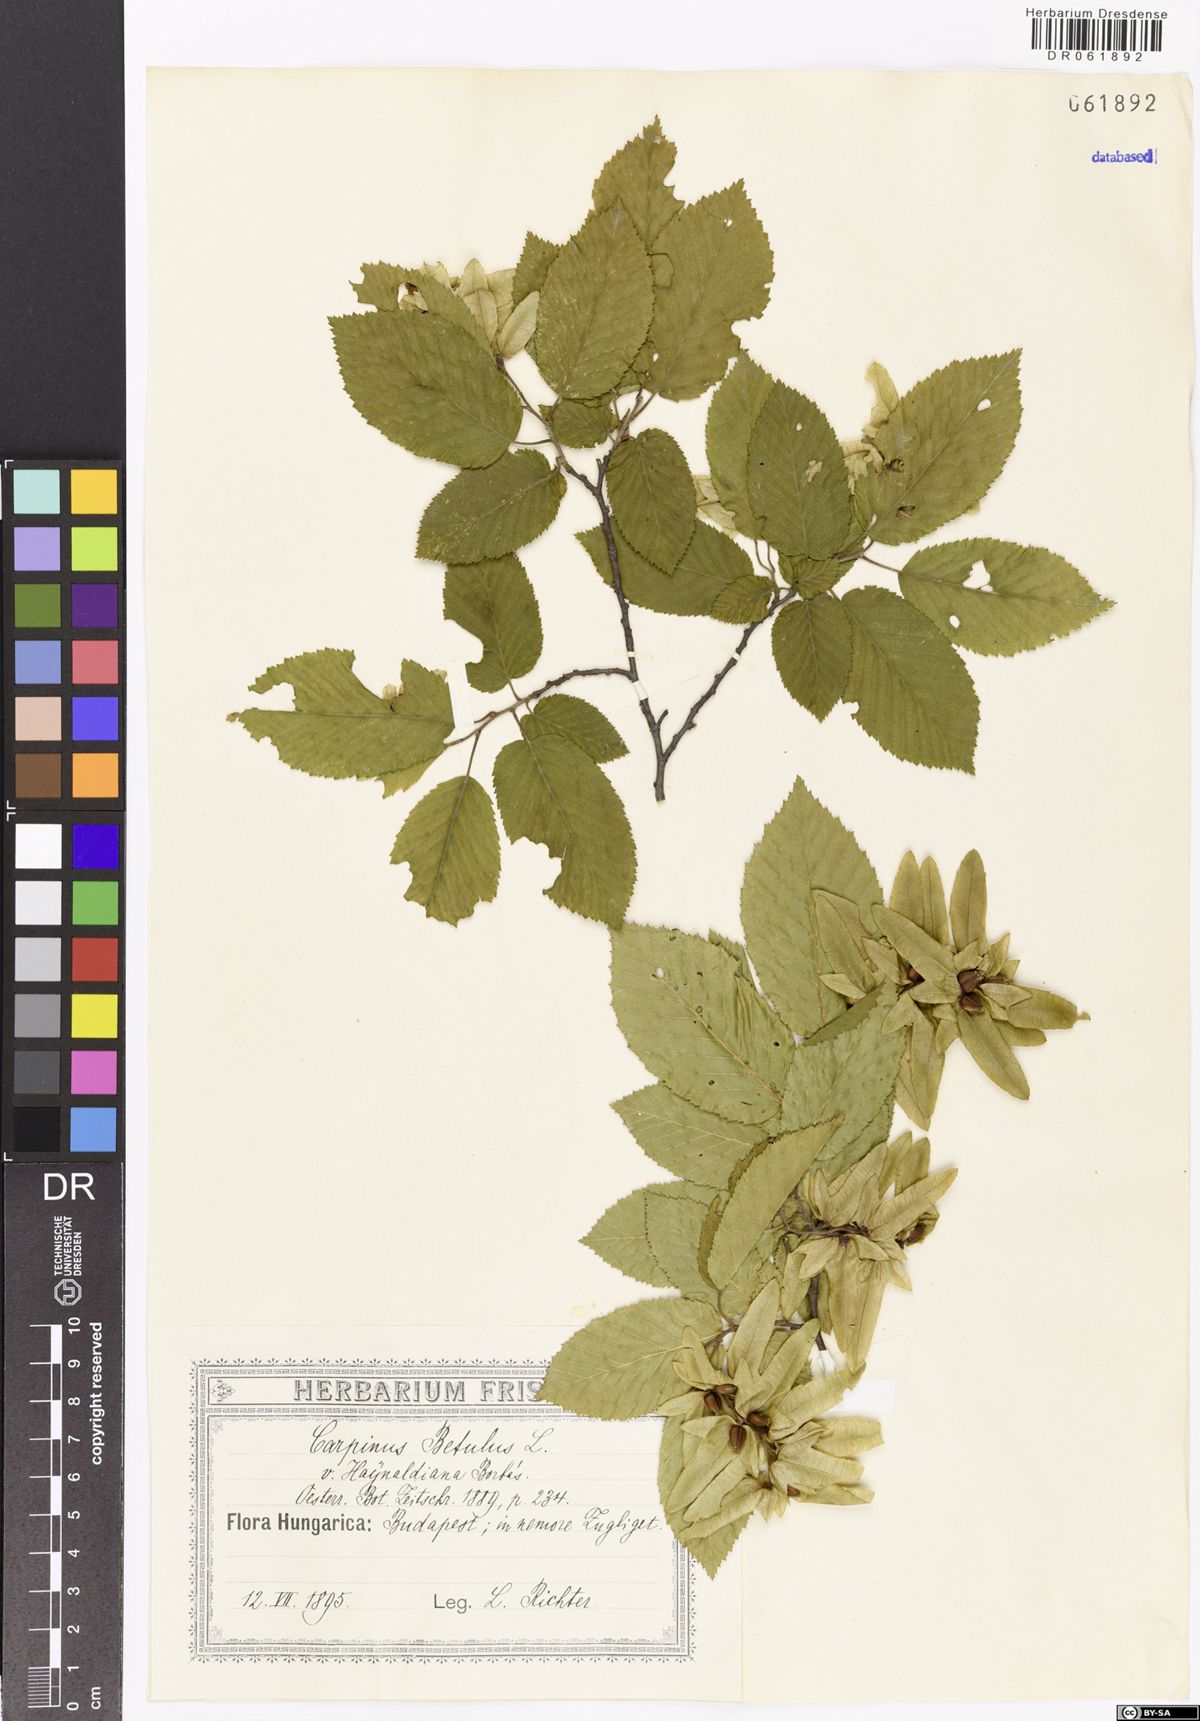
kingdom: Plantae
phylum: Tracheophyta
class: Magnoliopsida
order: Fagales
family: Betulaceae
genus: Carpinus
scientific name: Carpinus betulus
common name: Hornbeam
